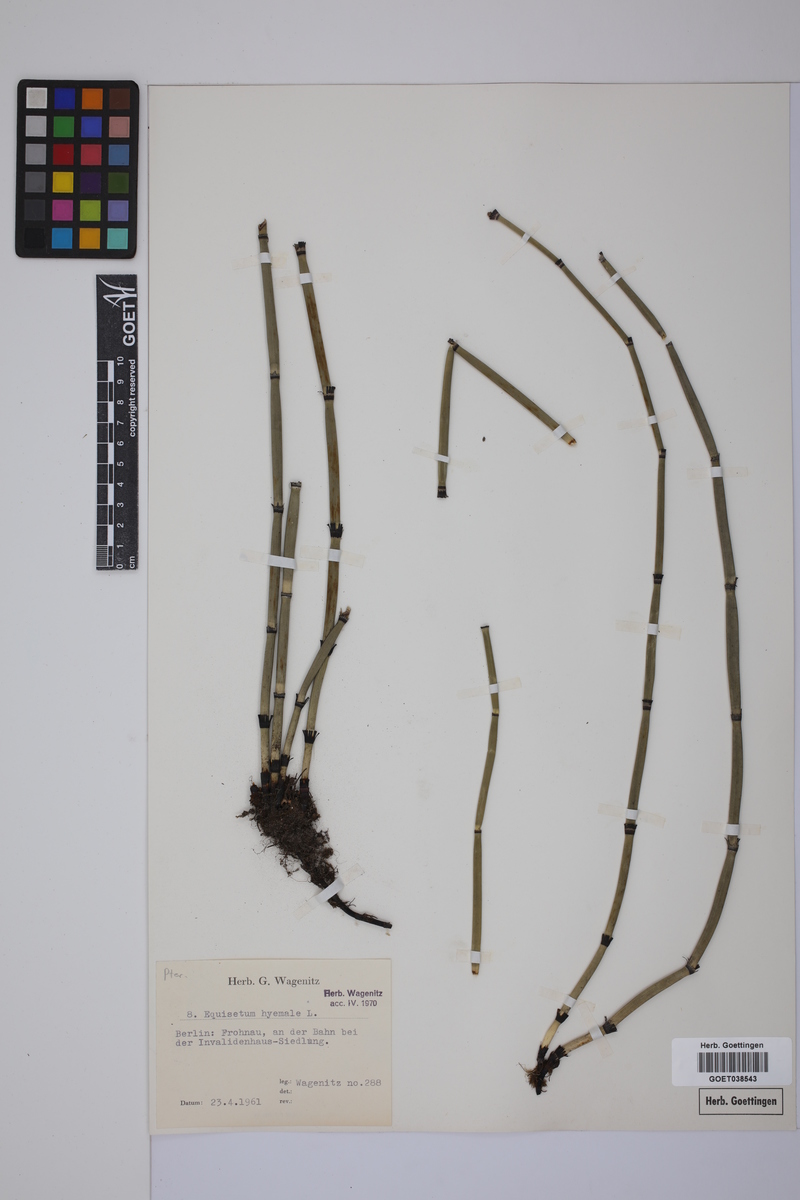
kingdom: Plantae
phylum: Tracheophyta
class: Polypodiopsida
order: Equisetales
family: Equisetaceae
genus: Equisetum
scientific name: Equisetum hyemale
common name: Rough horsetail
